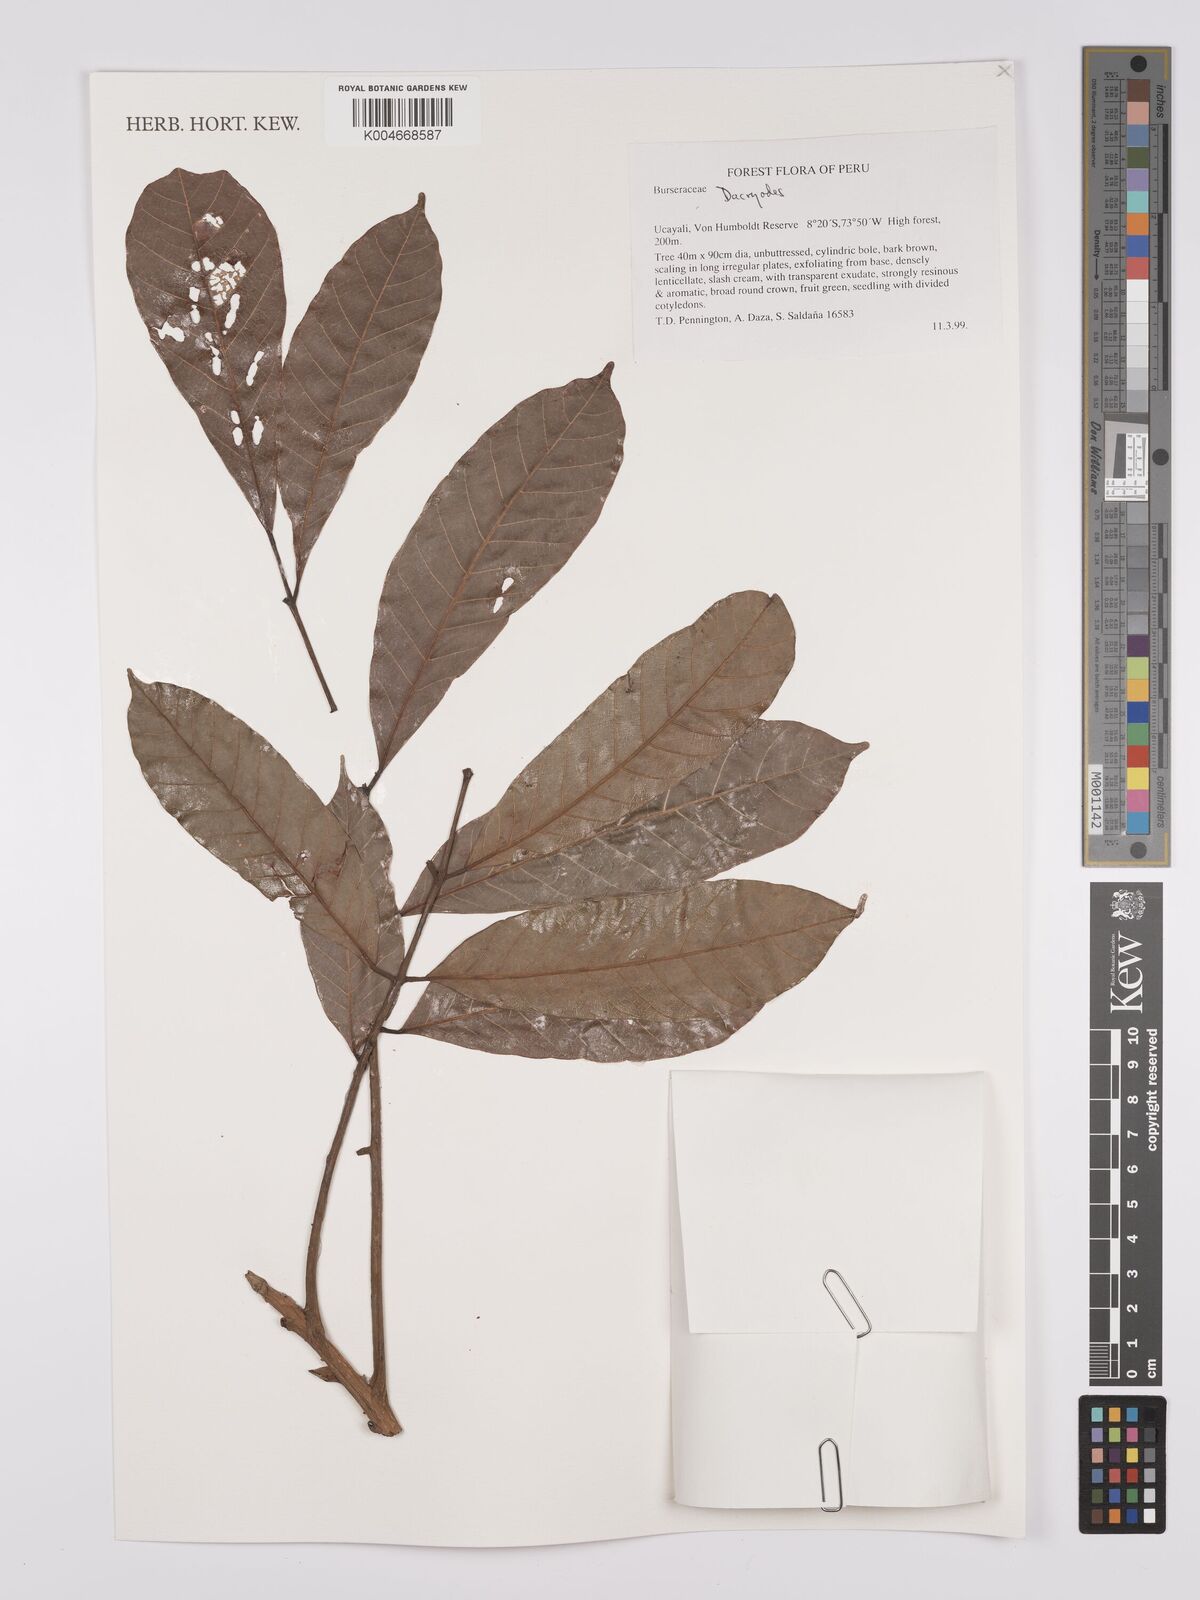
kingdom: Plantae
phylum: Tracheophyta
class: Magnoliopsida
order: Sapindales
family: Burseraceae
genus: Dacryodes
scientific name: Dacryodes
